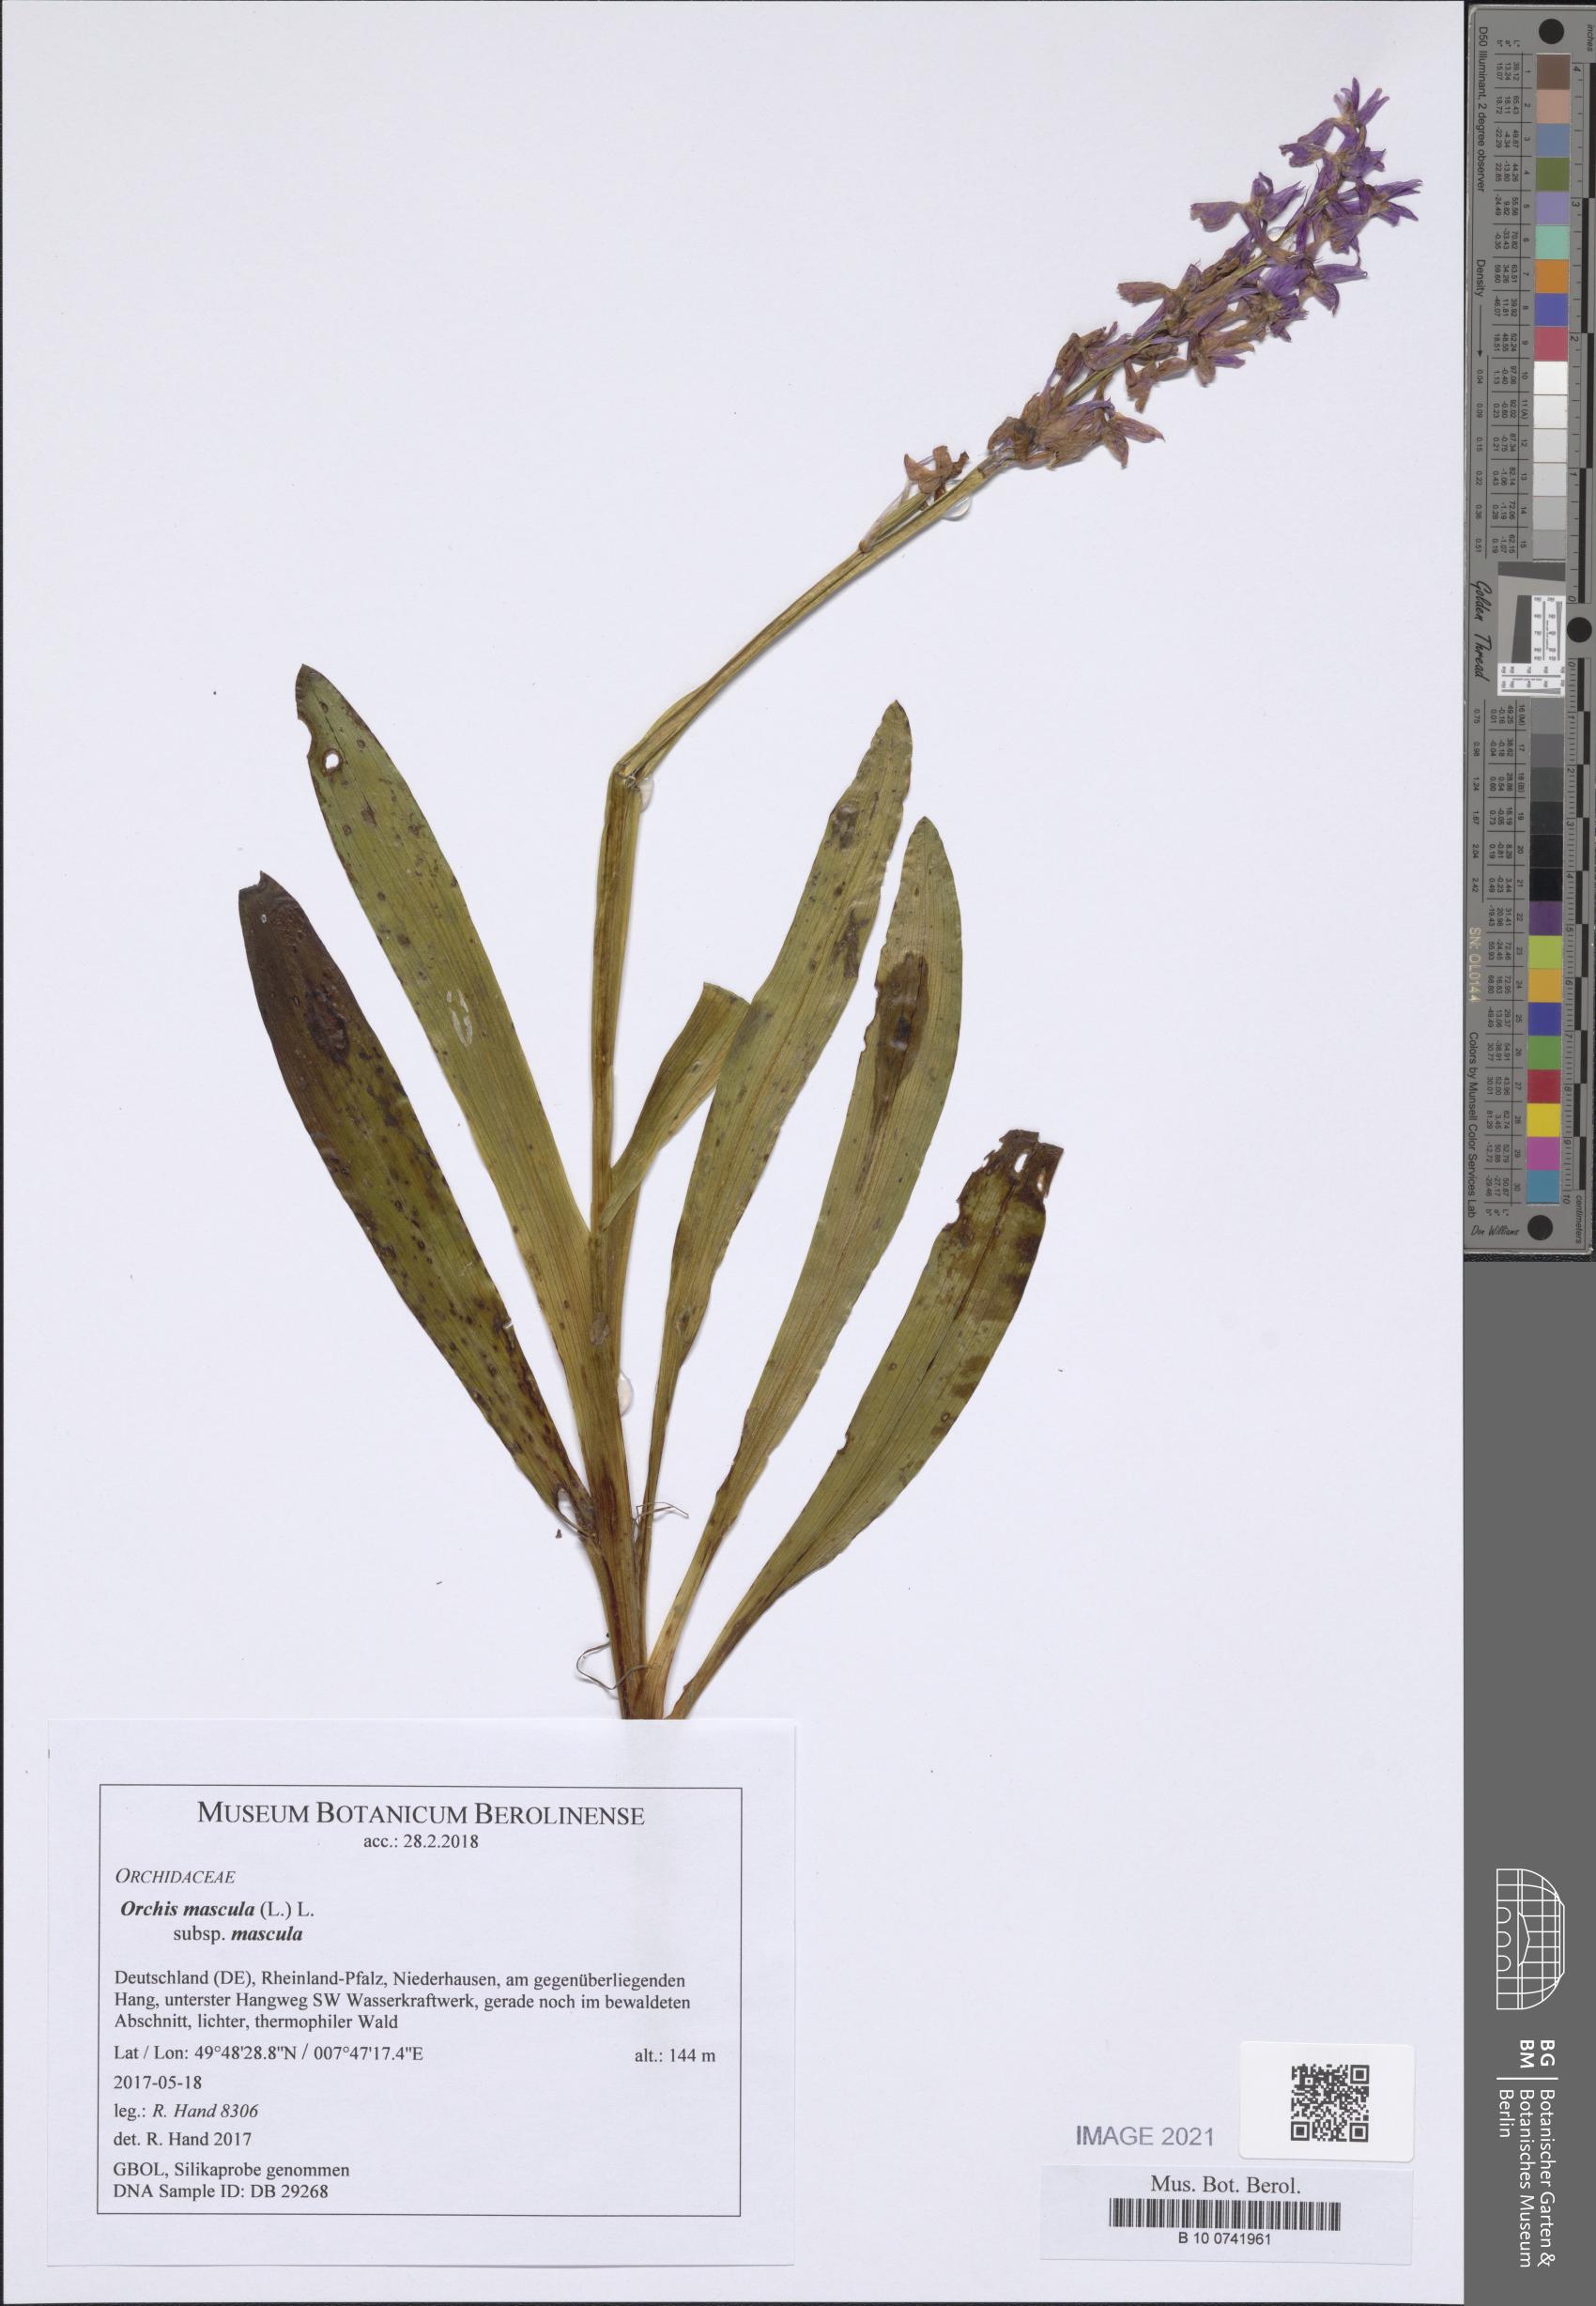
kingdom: Plantae
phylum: Tracheophyta
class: Liliopsida
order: Asparagales
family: Orchidaceae
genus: Orchis
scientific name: Orchis mascula
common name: Early-purple orchid
